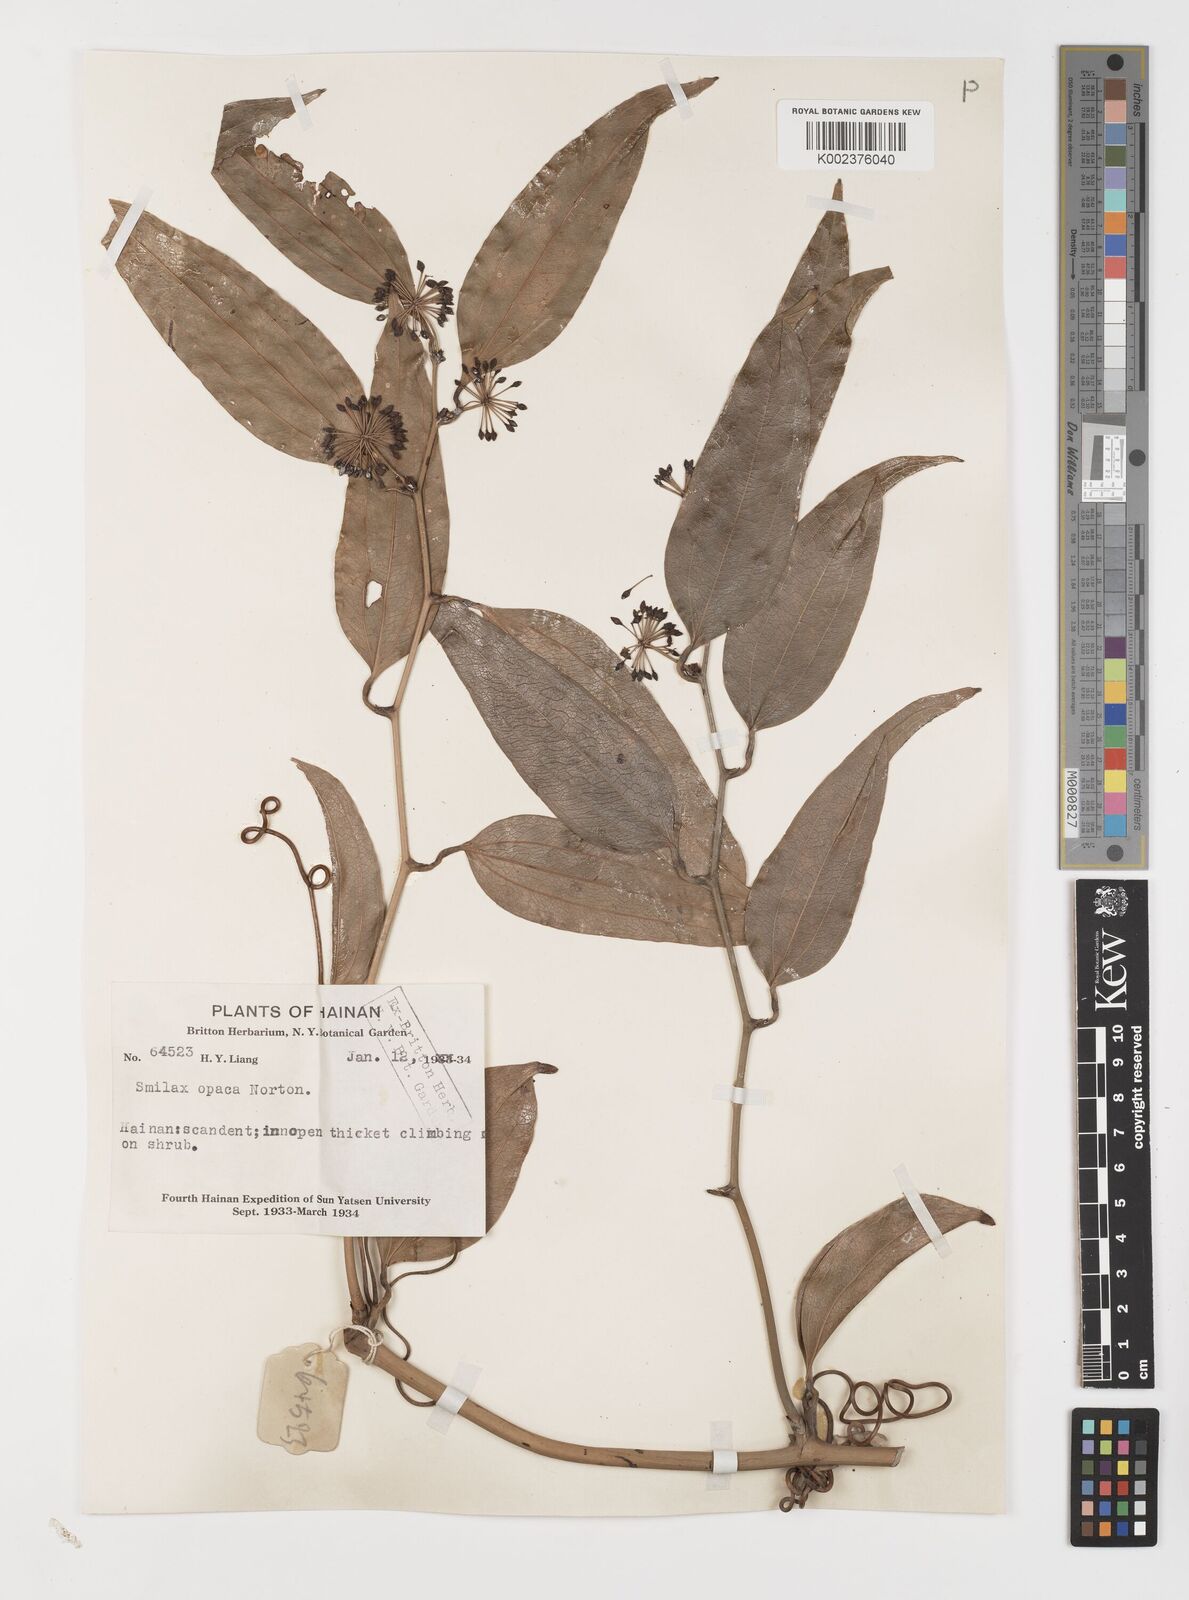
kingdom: Plantae
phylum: Tracheophyta
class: Liliopsida
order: Liliales
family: Smilacaceae
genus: Smilax
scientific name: Smilax laevis
